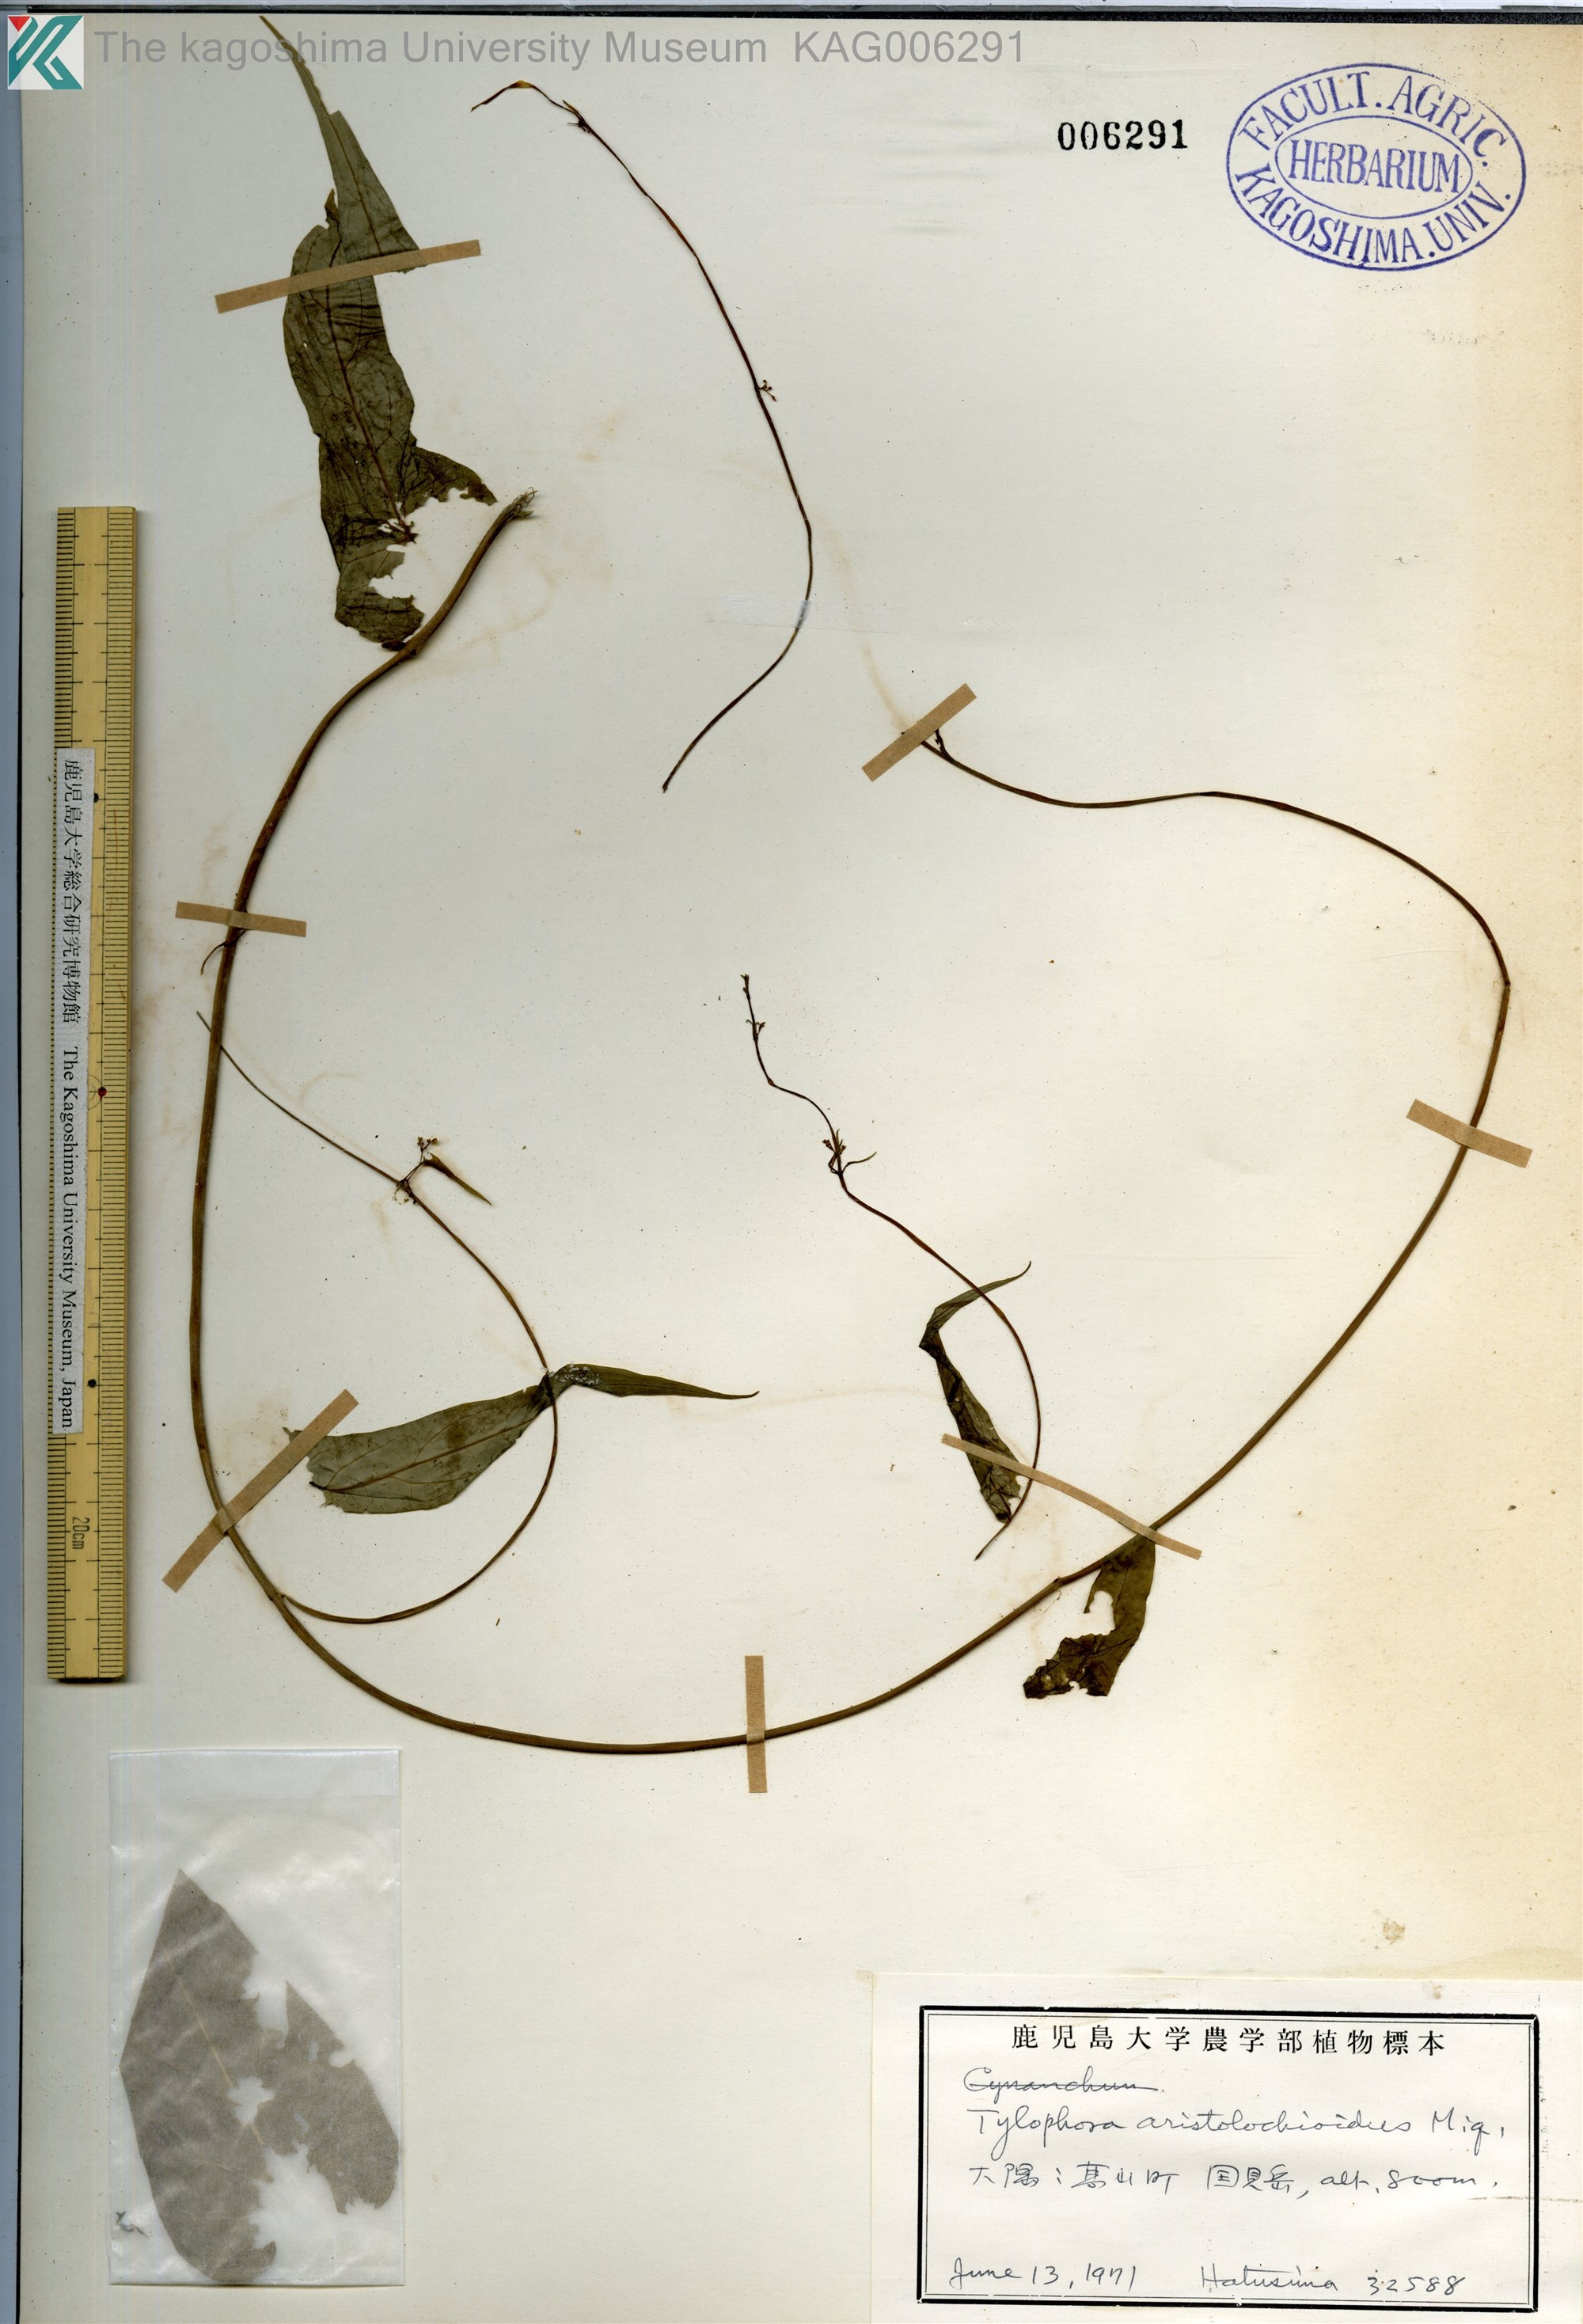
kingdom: Plantae
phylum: Tracheophyta
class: Magnoliopsida
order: Gentianales
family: Apocynaceae
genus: Vincetoxicum
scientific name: Vincetoxicum aristolochioides
